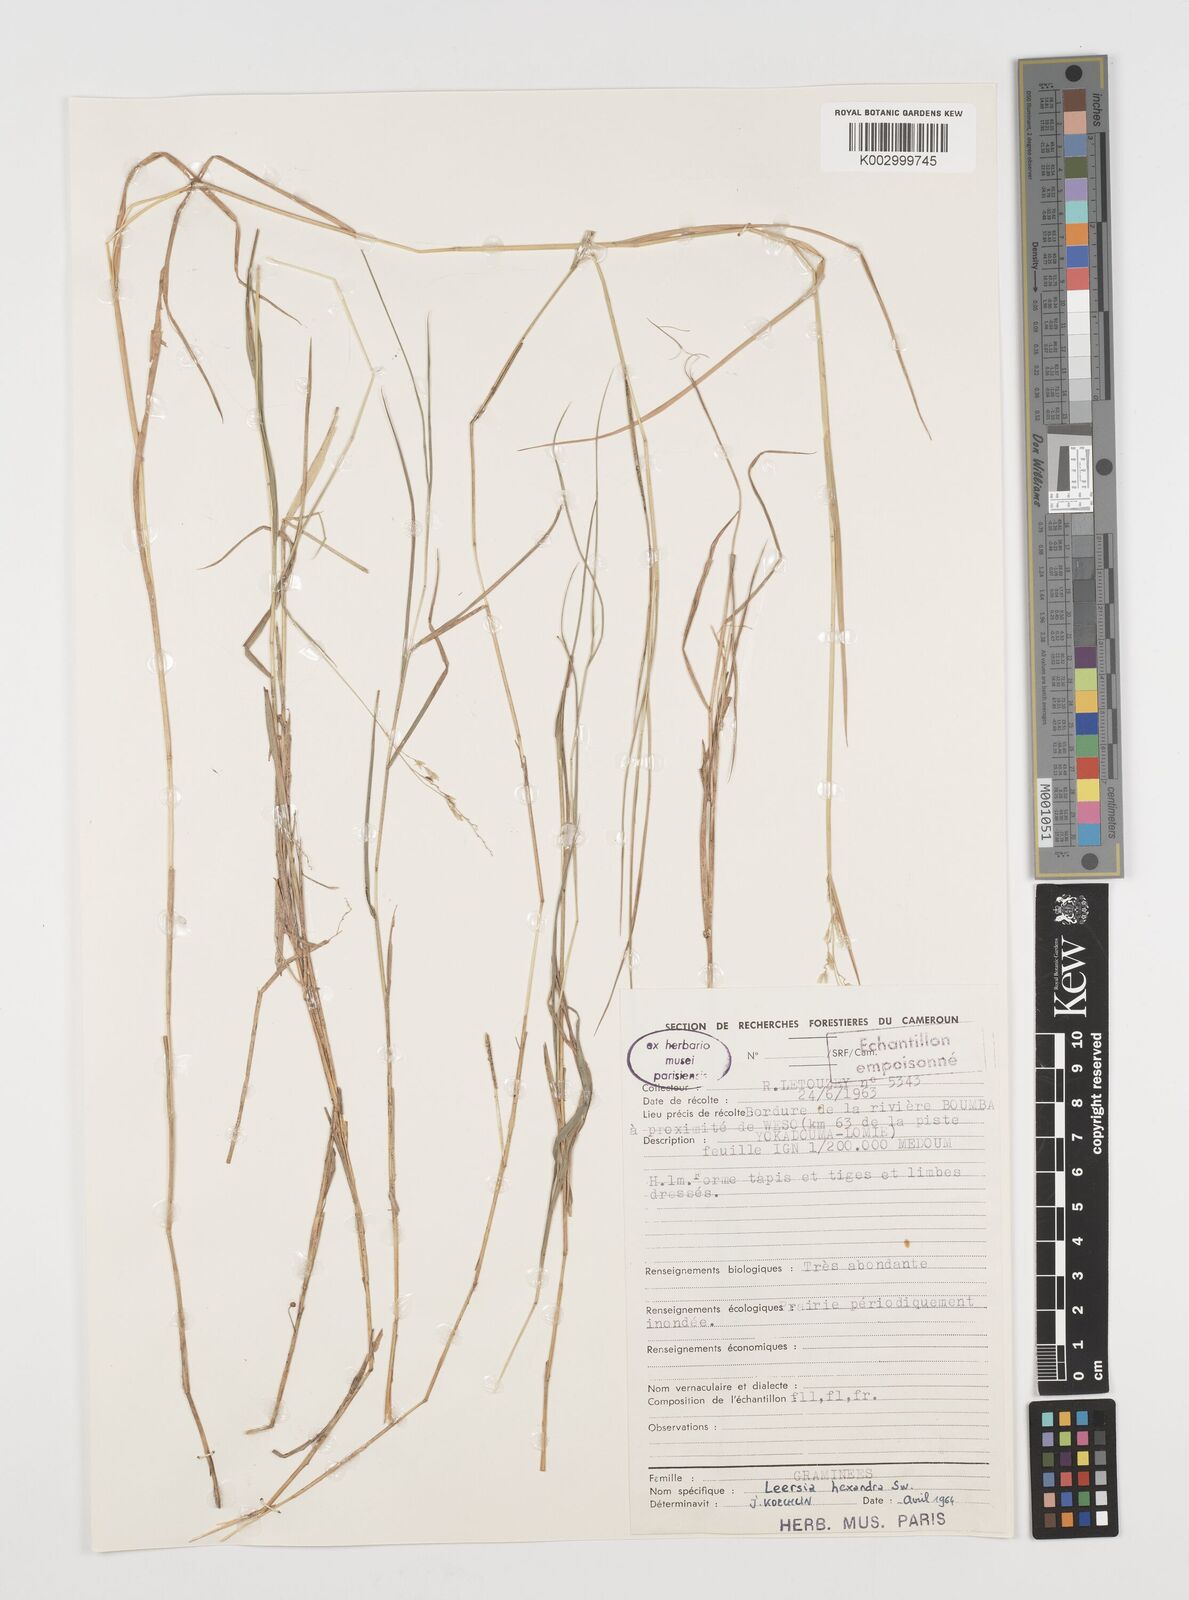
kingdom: Plantae
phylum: Tracheophyta
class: Liliopsida
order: Poales
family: Poaceae
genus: Leersia
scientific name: Leersia hexandra
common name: Southern cut grass
